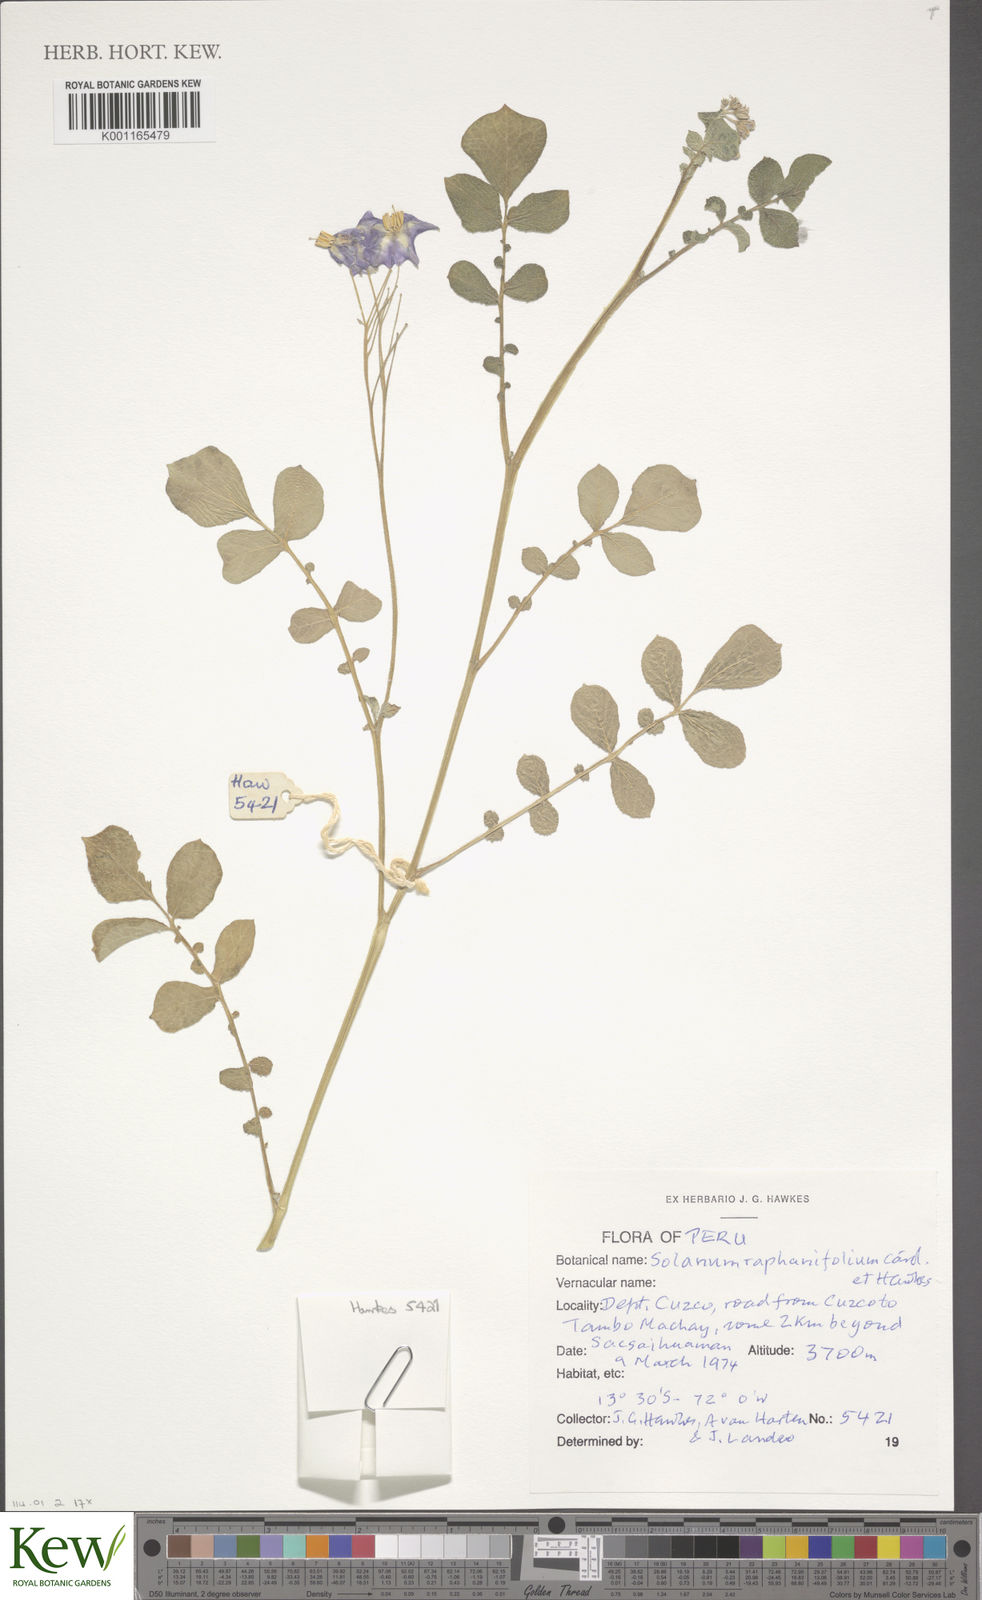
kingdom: Plantae
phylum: Tracheophyta
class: Magnoliopsida
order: Solanales
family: Solanaceae
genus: Solanum
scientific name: Solanum raphanifolium
